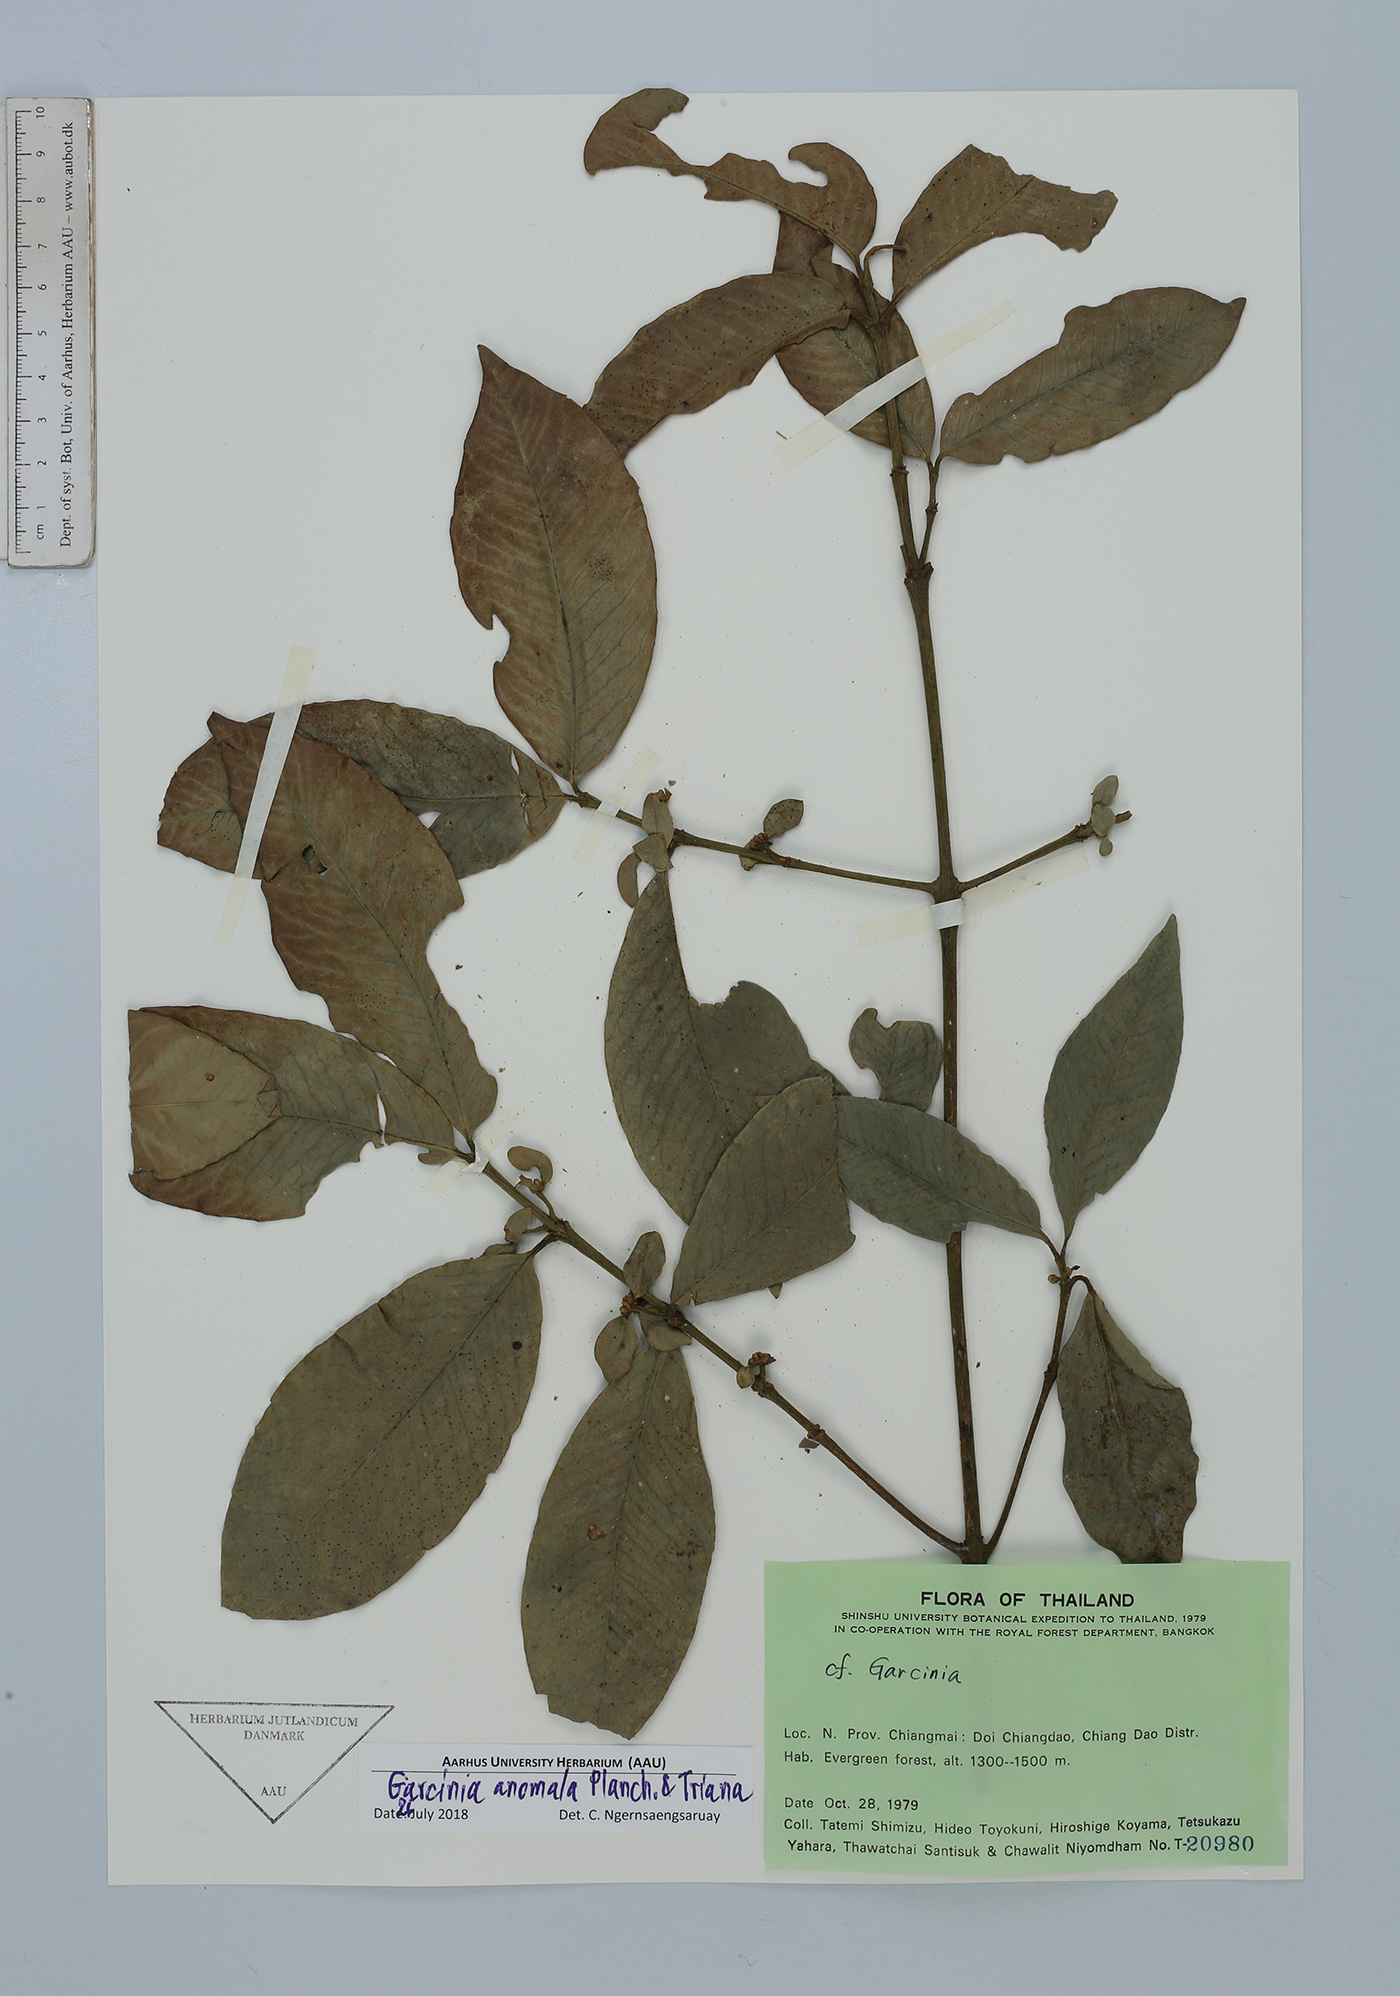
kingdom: Plantae
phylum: Tracheophyta
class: Magnoliopsida
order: Malpighiales
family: Clusiaceae
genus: Garcinia
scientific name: Garcinia anomala
